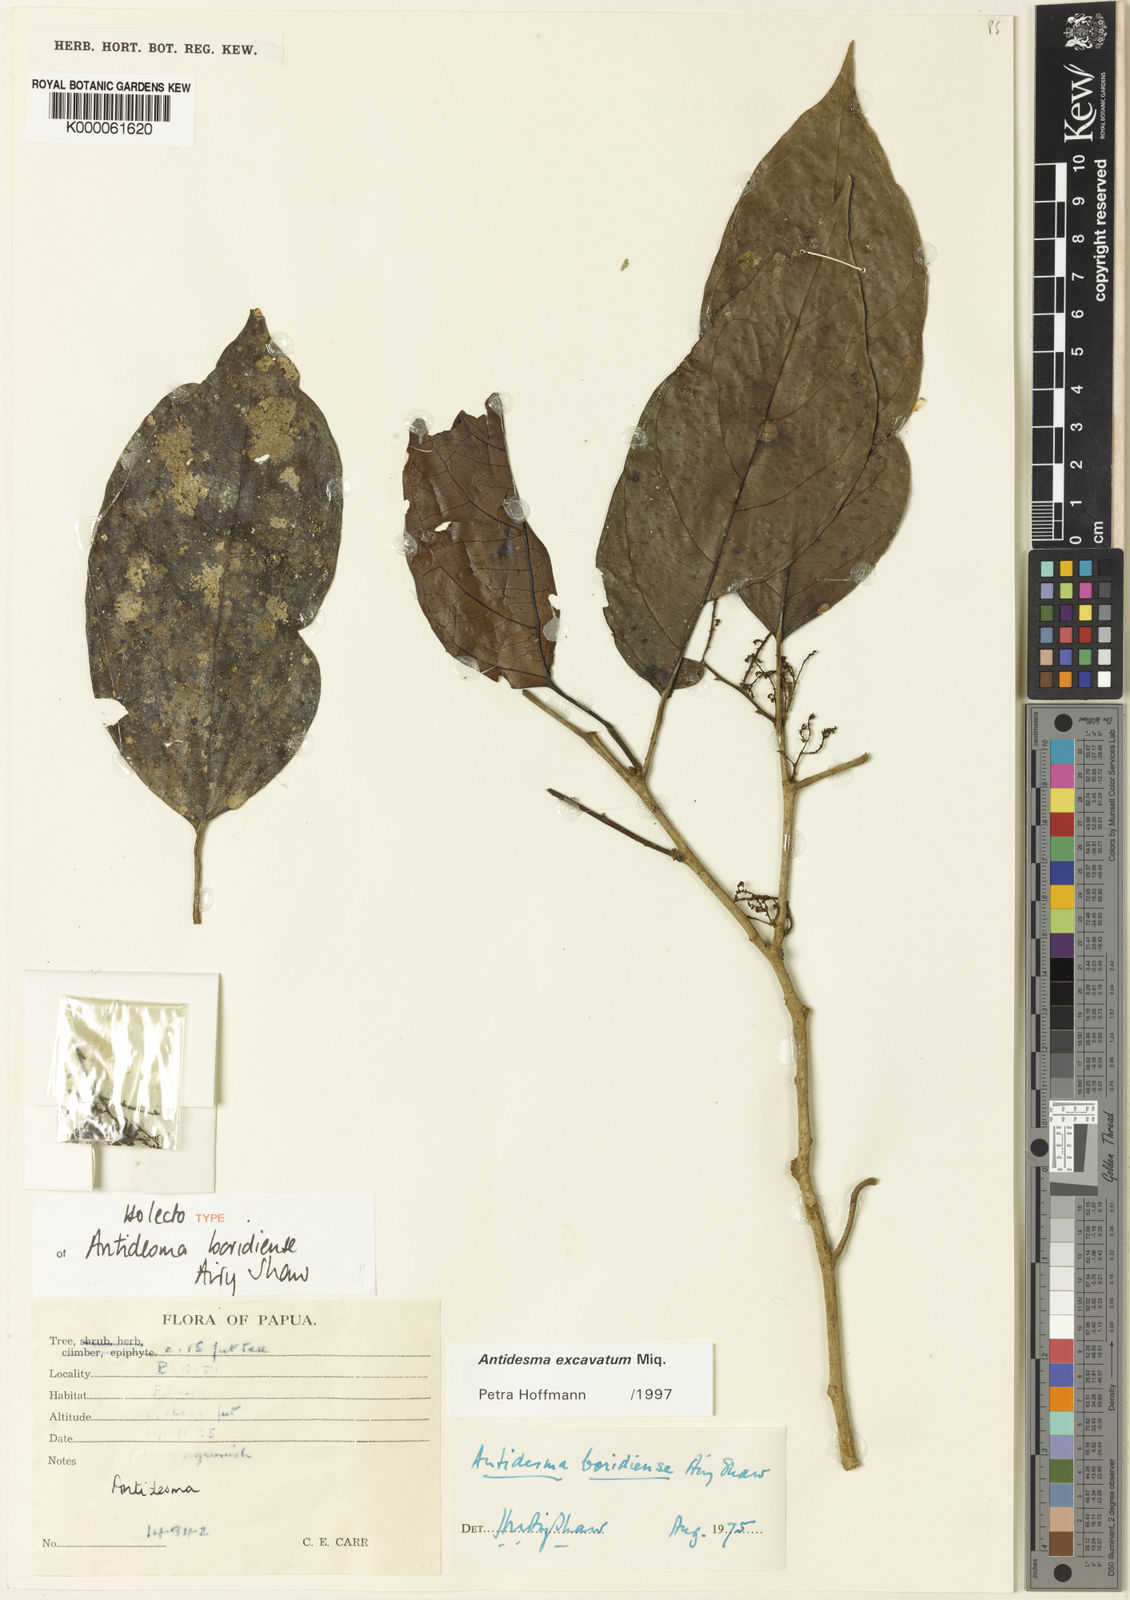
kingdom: Plantae
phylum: Tracheophyta
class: Magnoliopsida
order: Malpighiales
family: Phyllanthaceae
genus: Antidesma
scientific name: Antidesma excavatum
